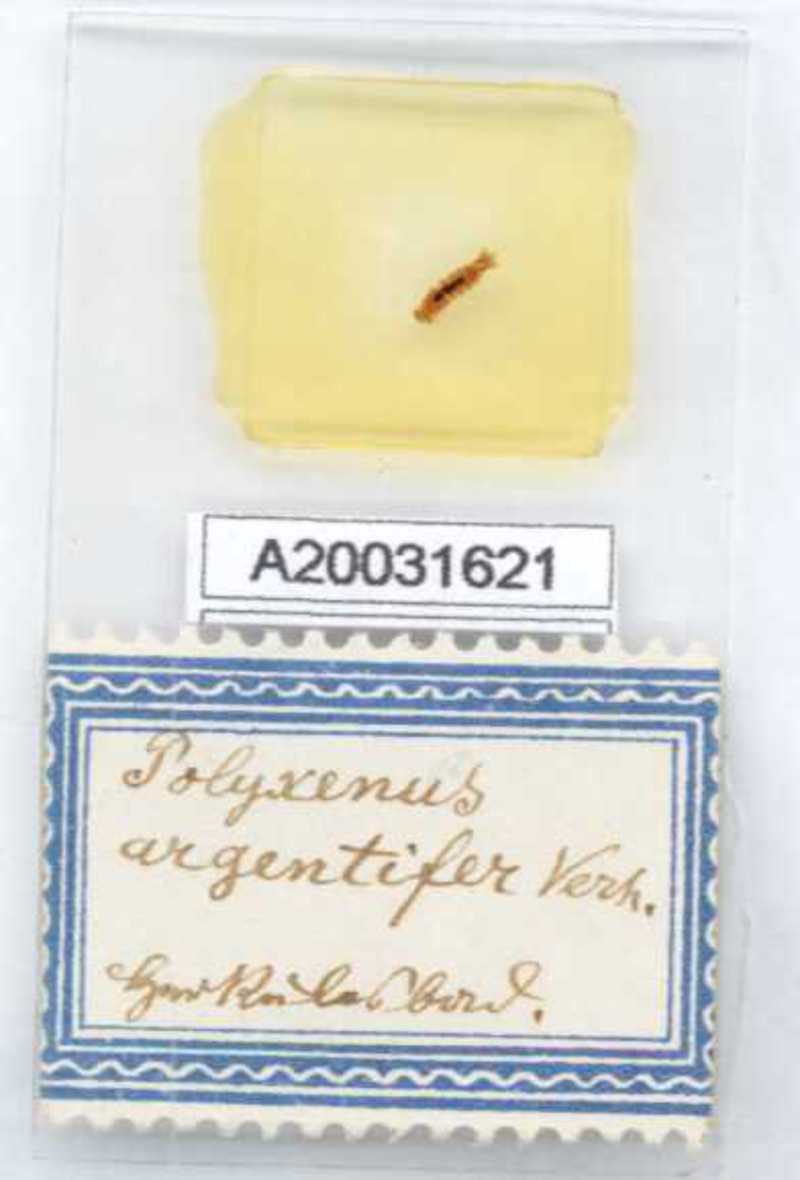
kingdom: Animalia
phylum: Arthropoda
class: Diplopoda
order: Polyxenida
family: Polyxenidae
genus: Propolyxenus
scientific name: Propolyxenus argentifer
